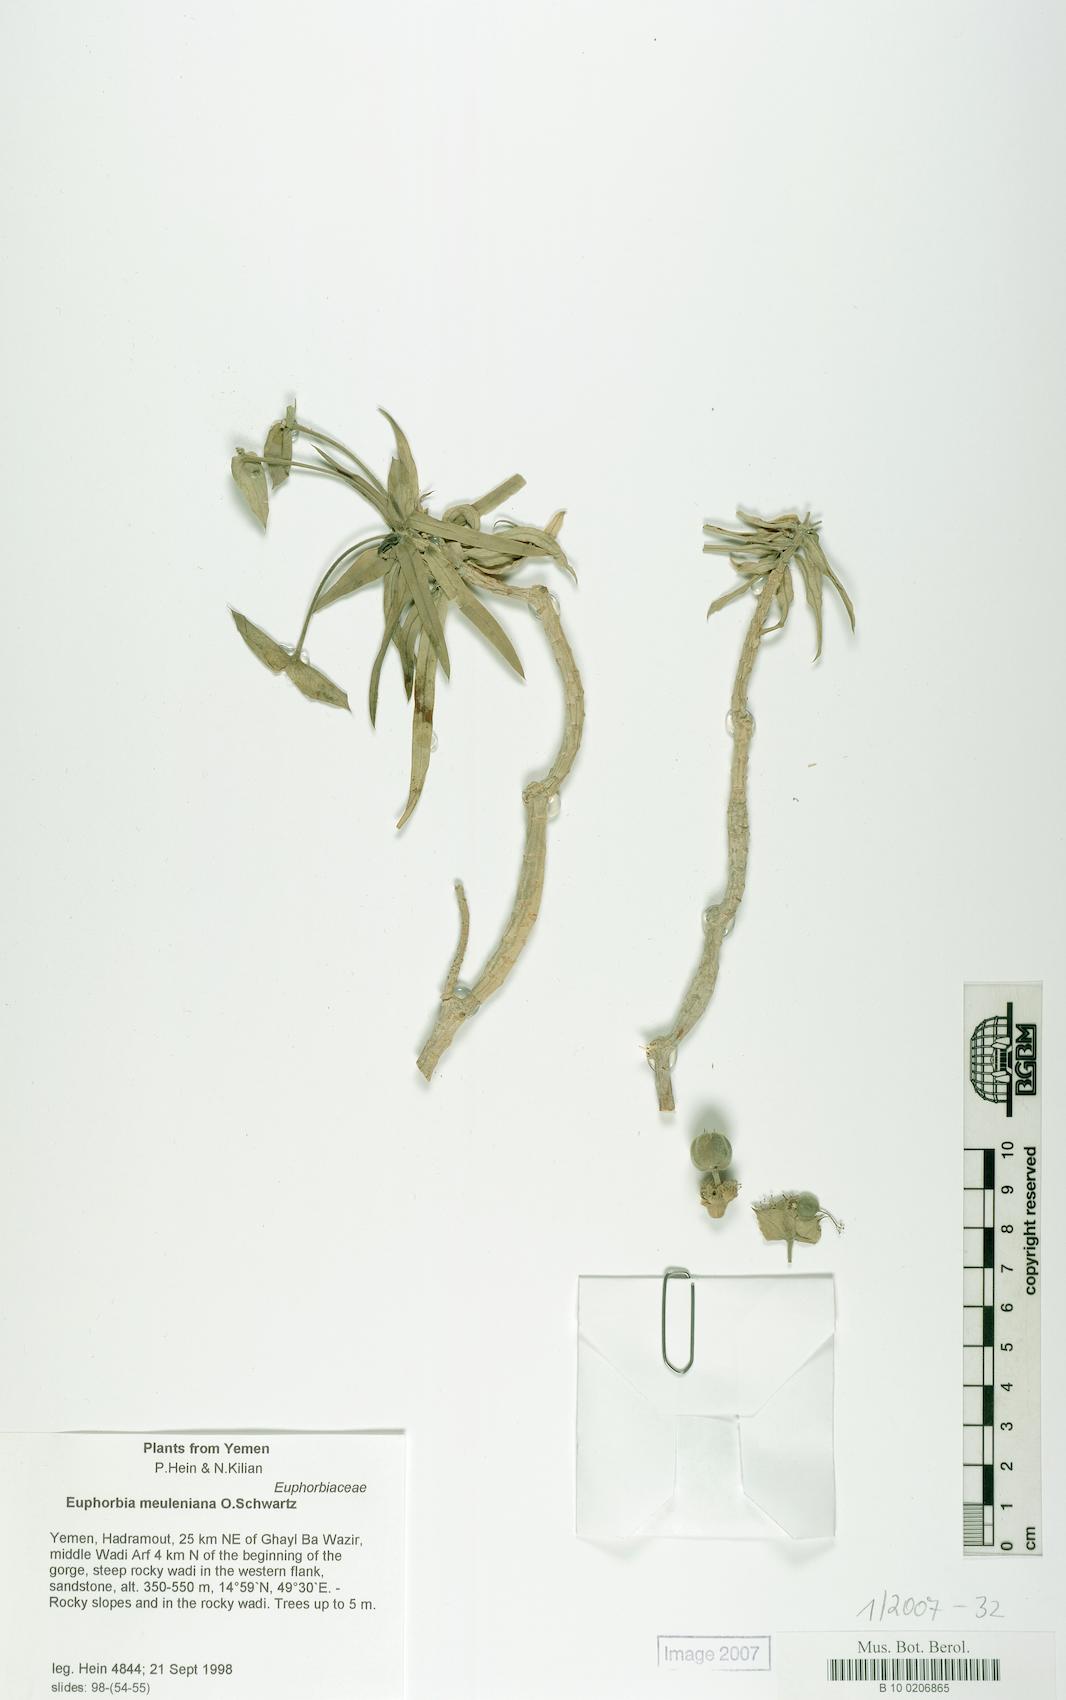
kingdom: Plantae
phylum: Tracheophyta
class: Magnoliopsida
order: Malpighiales
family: Euphorbiaceae
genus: Euphorbia
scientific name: Euphorbia meuleniana
